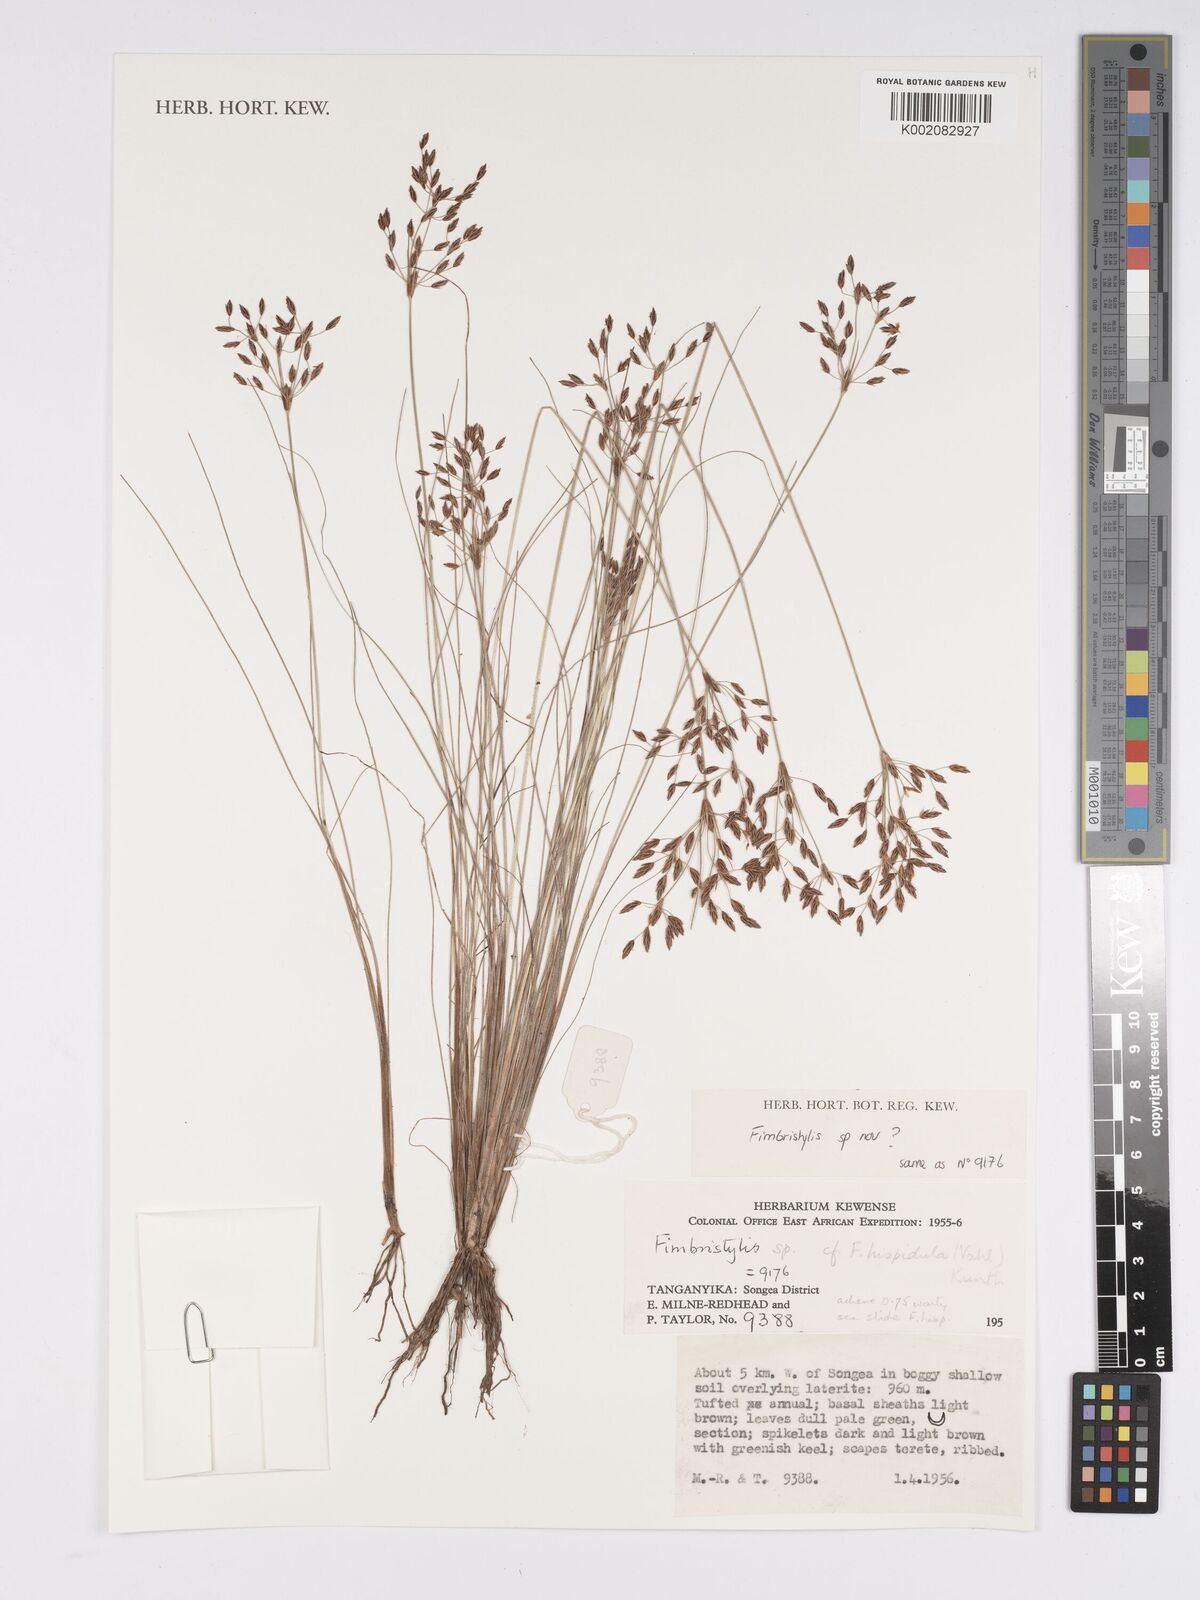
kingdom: Plantae
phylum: Tracheophyta
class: Liliopsida
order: Poales
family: Cyperaceae
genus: Bulbostylis
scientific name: Bulbostylis hispidula
